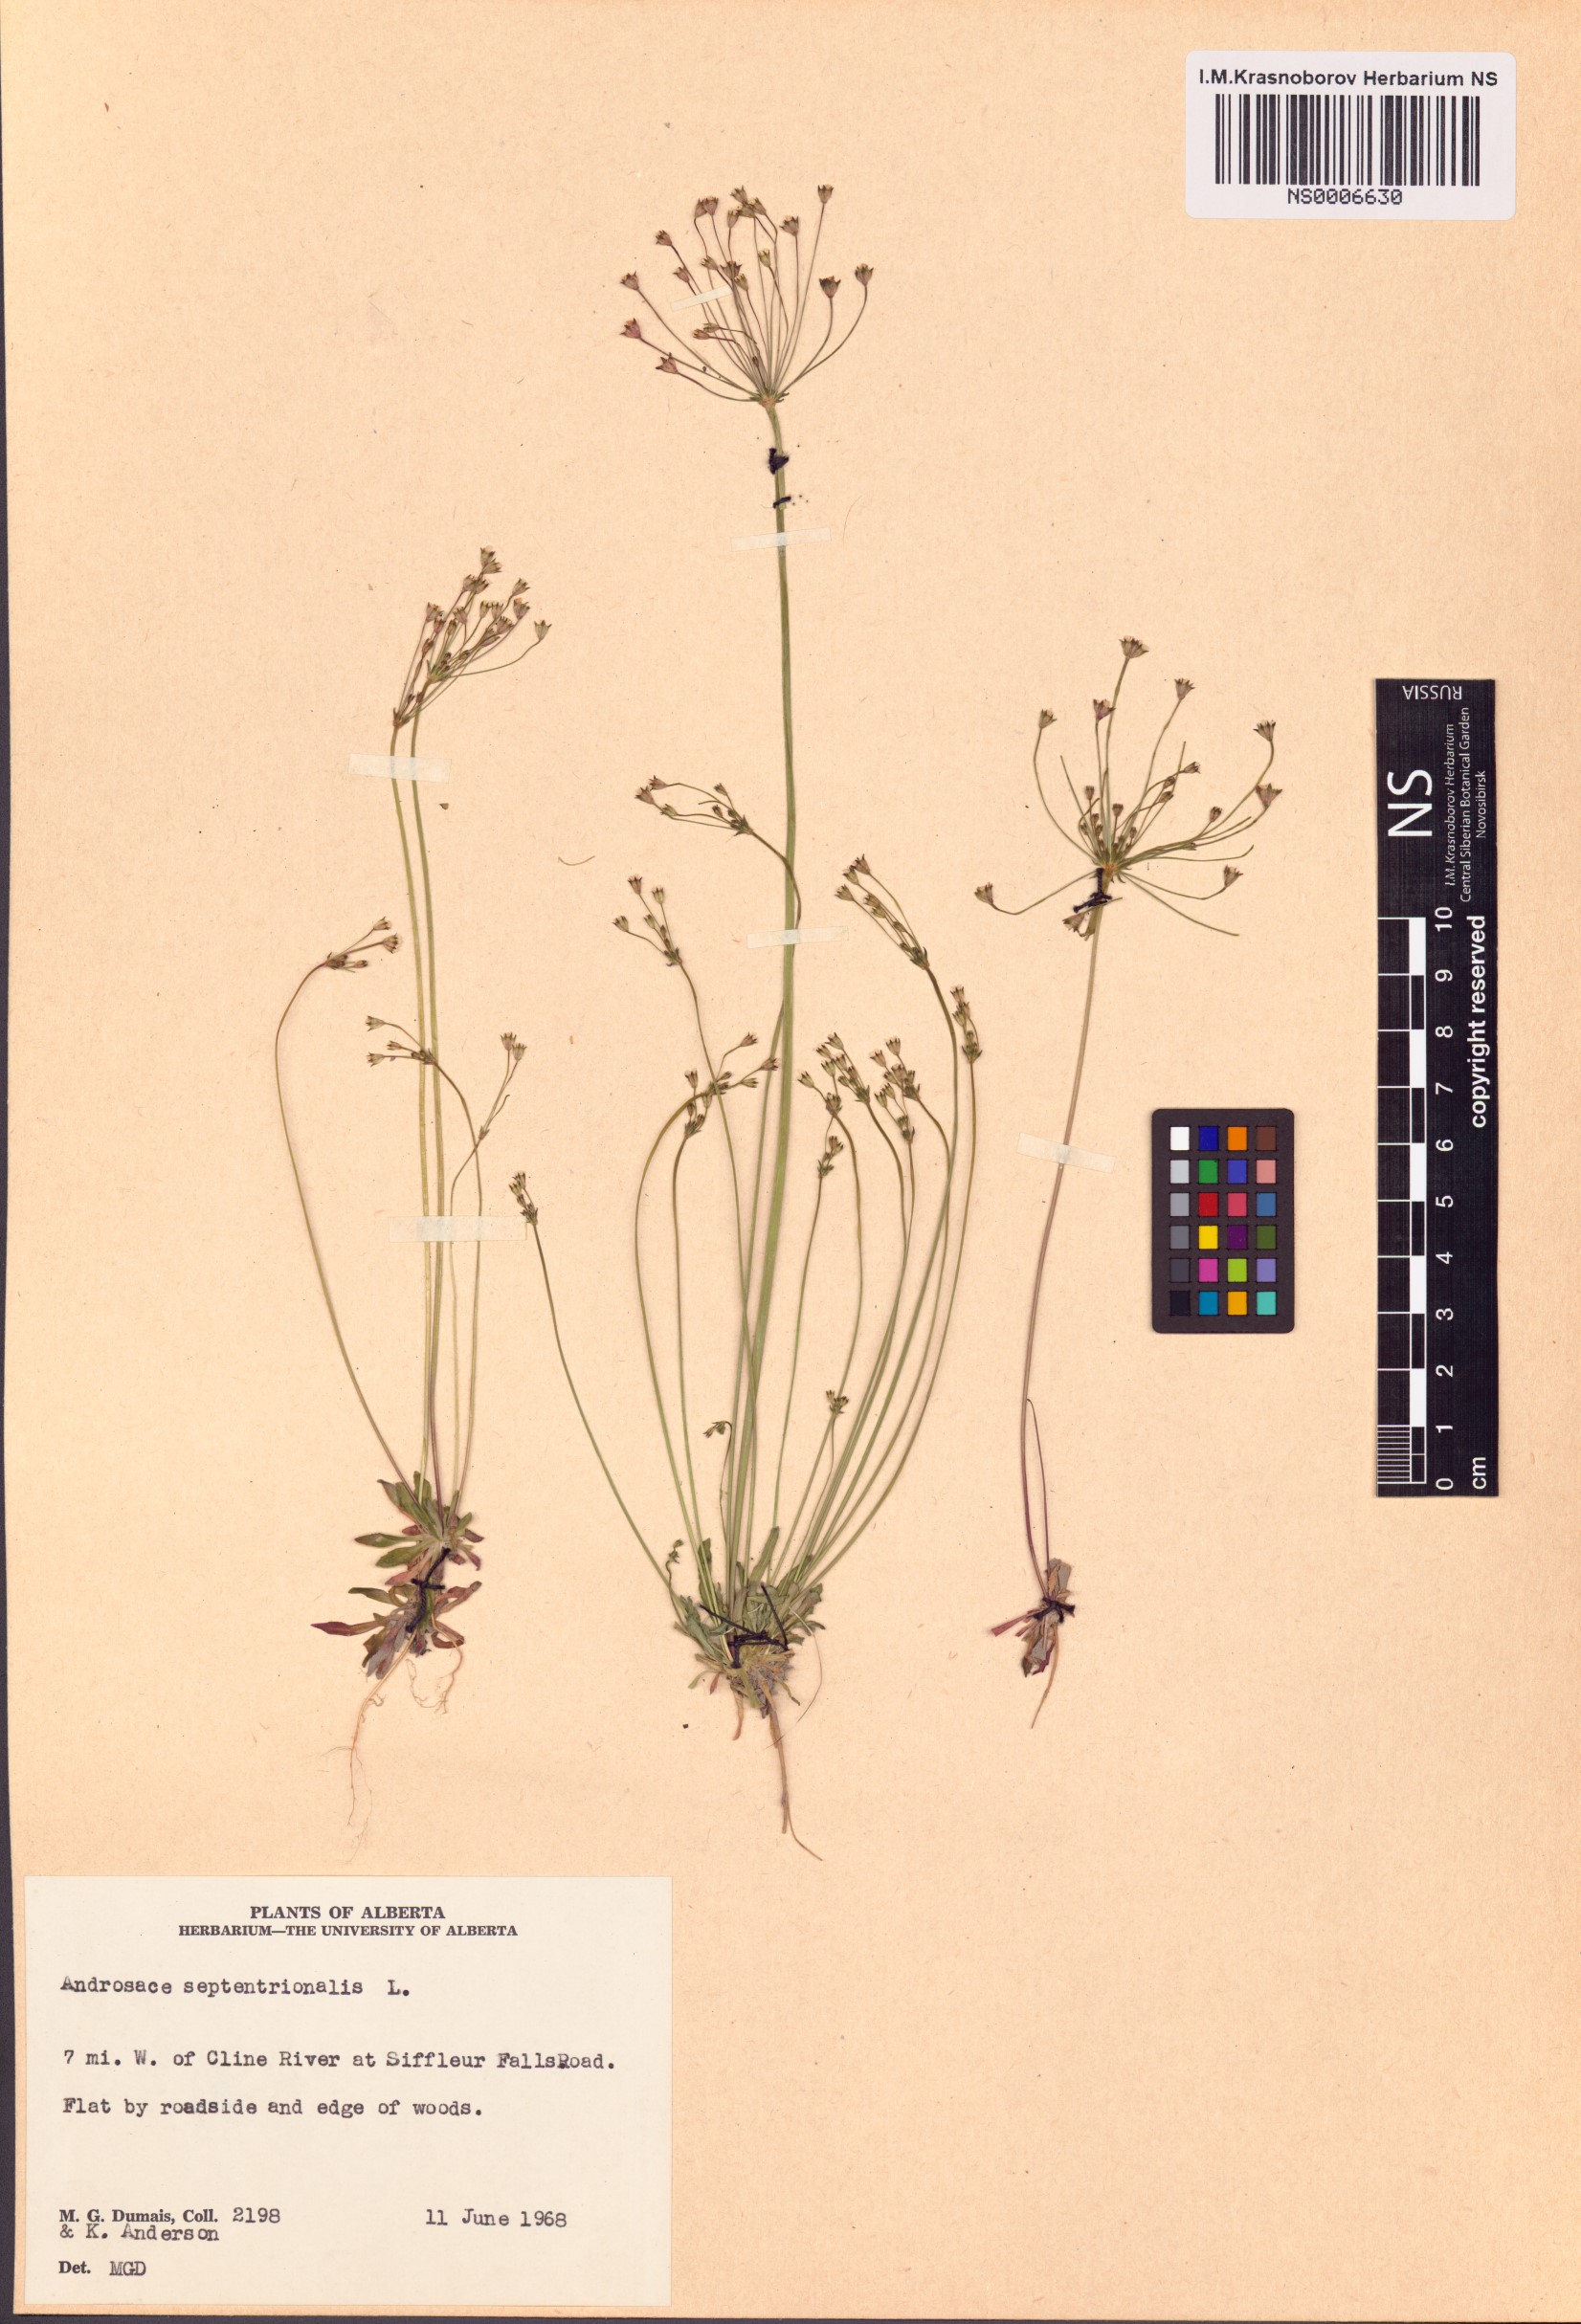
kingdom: Plantae
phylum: Tracheophyta
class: Magnoliopsida
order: Ericales
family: Primulaceae
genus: Androsace
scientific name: Androsace septentrionalis
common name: Hairy northern fairy-candelabra
